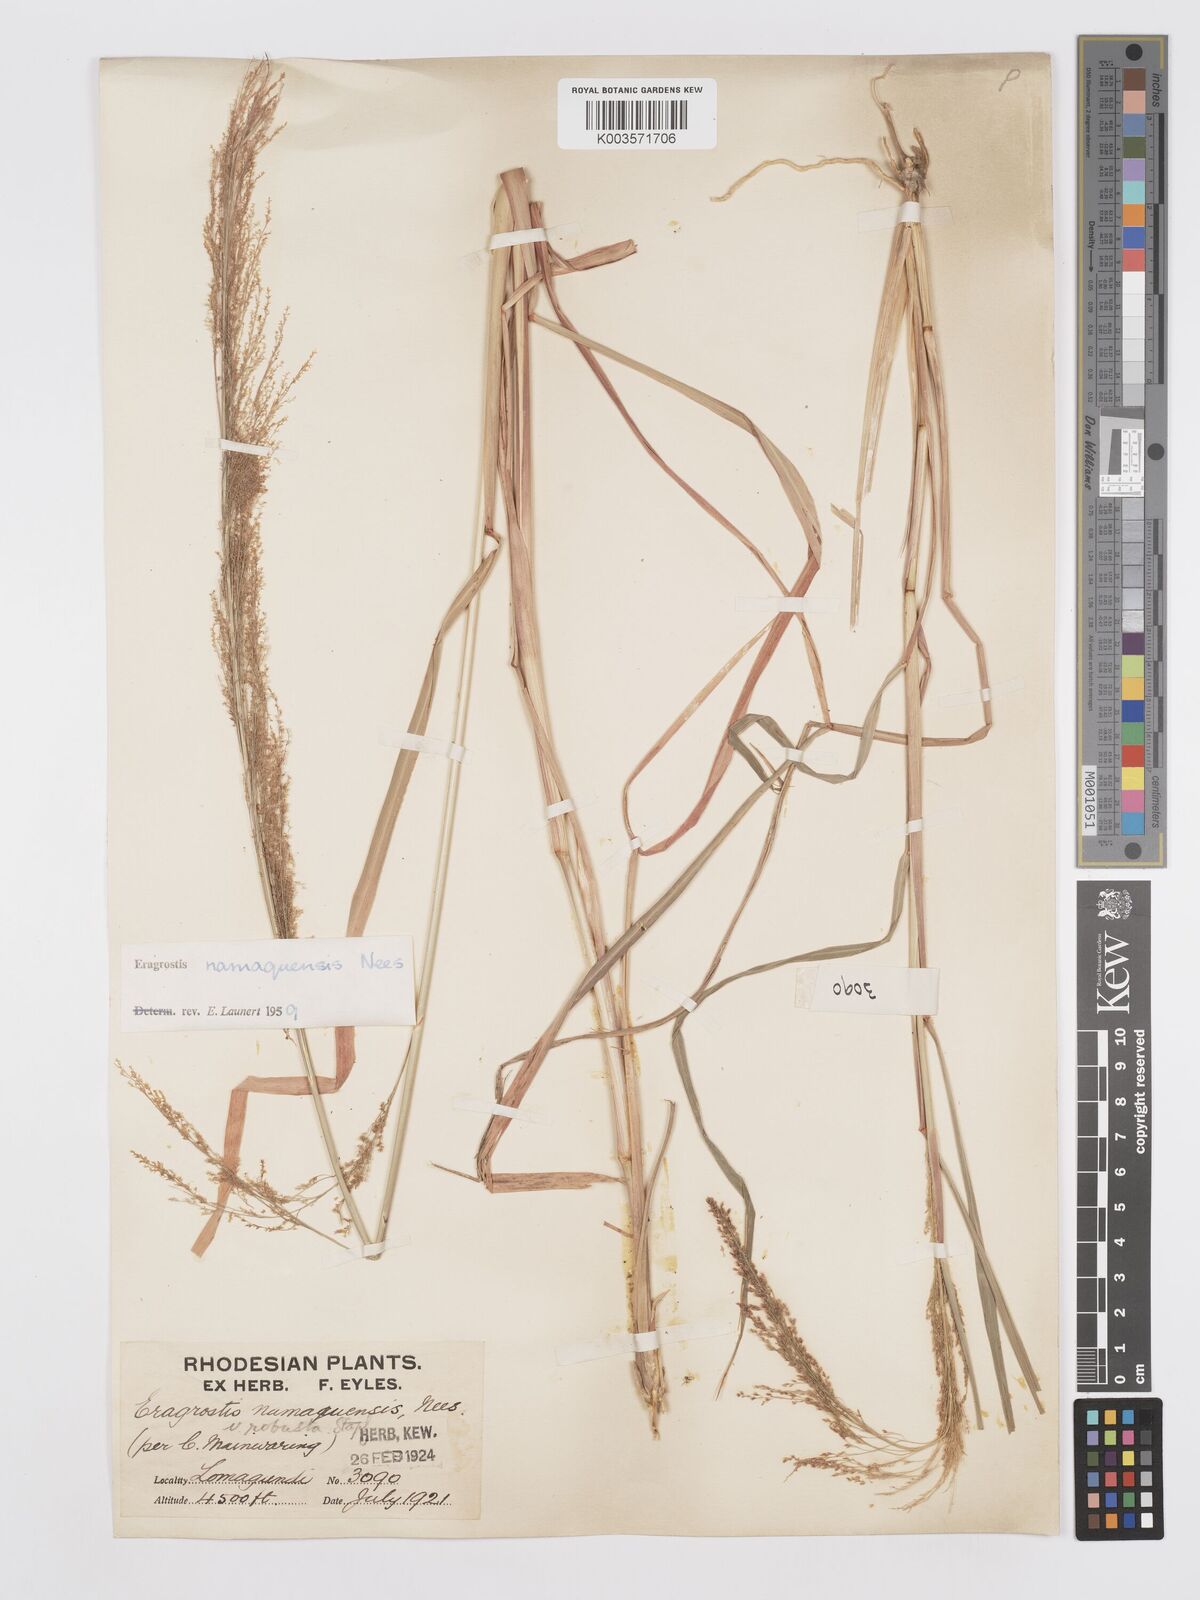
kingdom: Plantae
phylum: Tracheophyta
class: Liliopsida
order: Poales
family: Poaceae
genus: Eragrostis
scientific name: Eragrostis japonica
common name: Pond lovegrass
